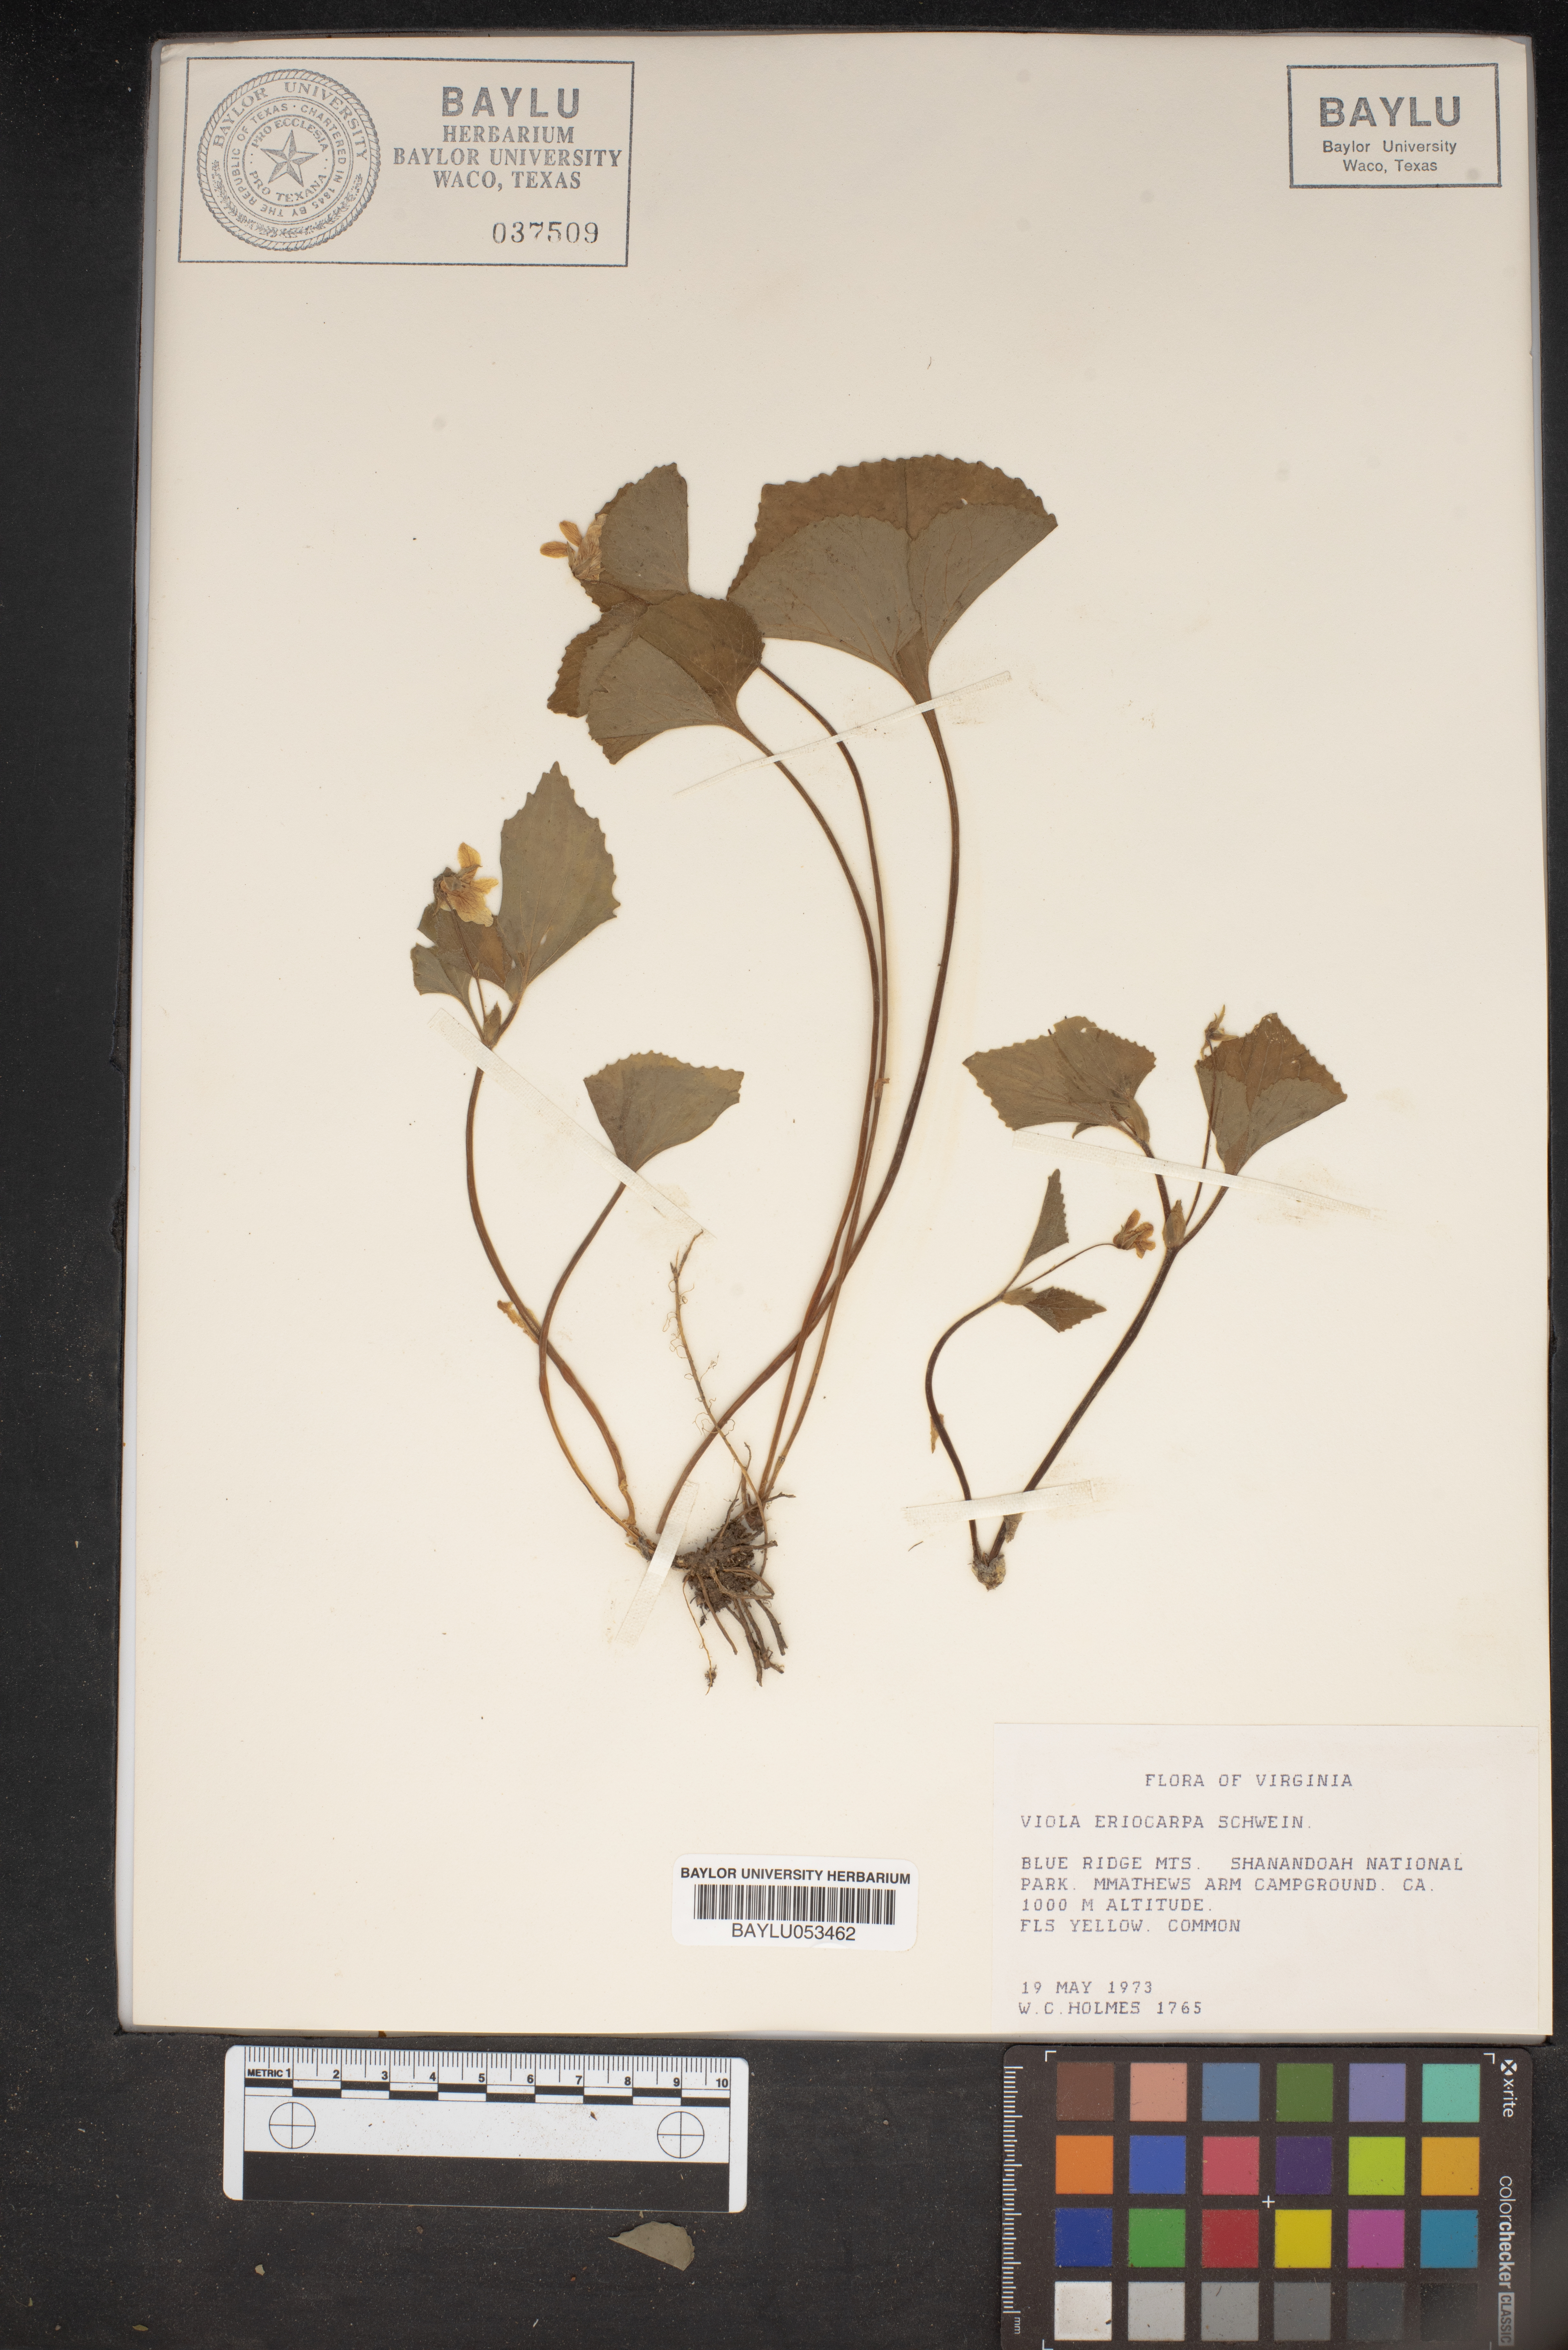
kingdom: Plantae
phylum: Tracheophyta
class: Magnoliopsida
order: Malpighiales
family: Violaceae
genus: Viola
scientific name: Viola eriocarpa
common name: Smooth yellow violet
